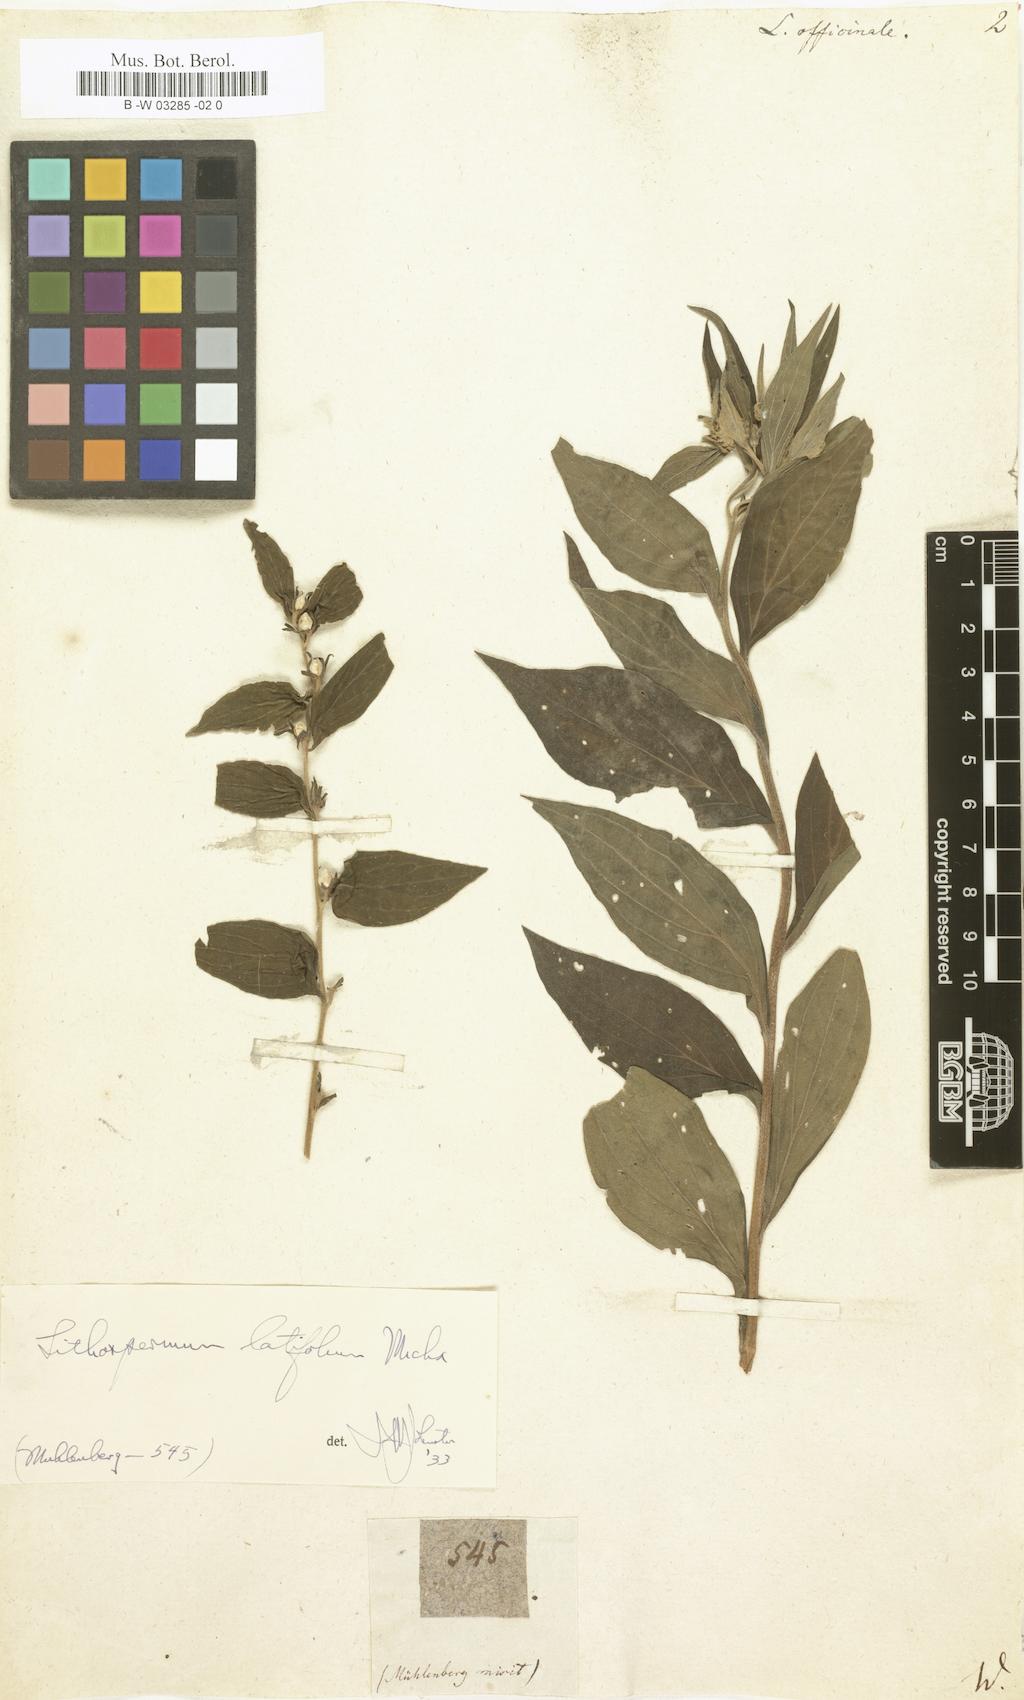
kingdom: Plantae
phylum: Tracheophyta
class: Magnoliopsida
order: Boraginales
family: Boraginaceae
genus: Lithospermum
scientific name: Lithospermum officinale
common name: Common gromwell
